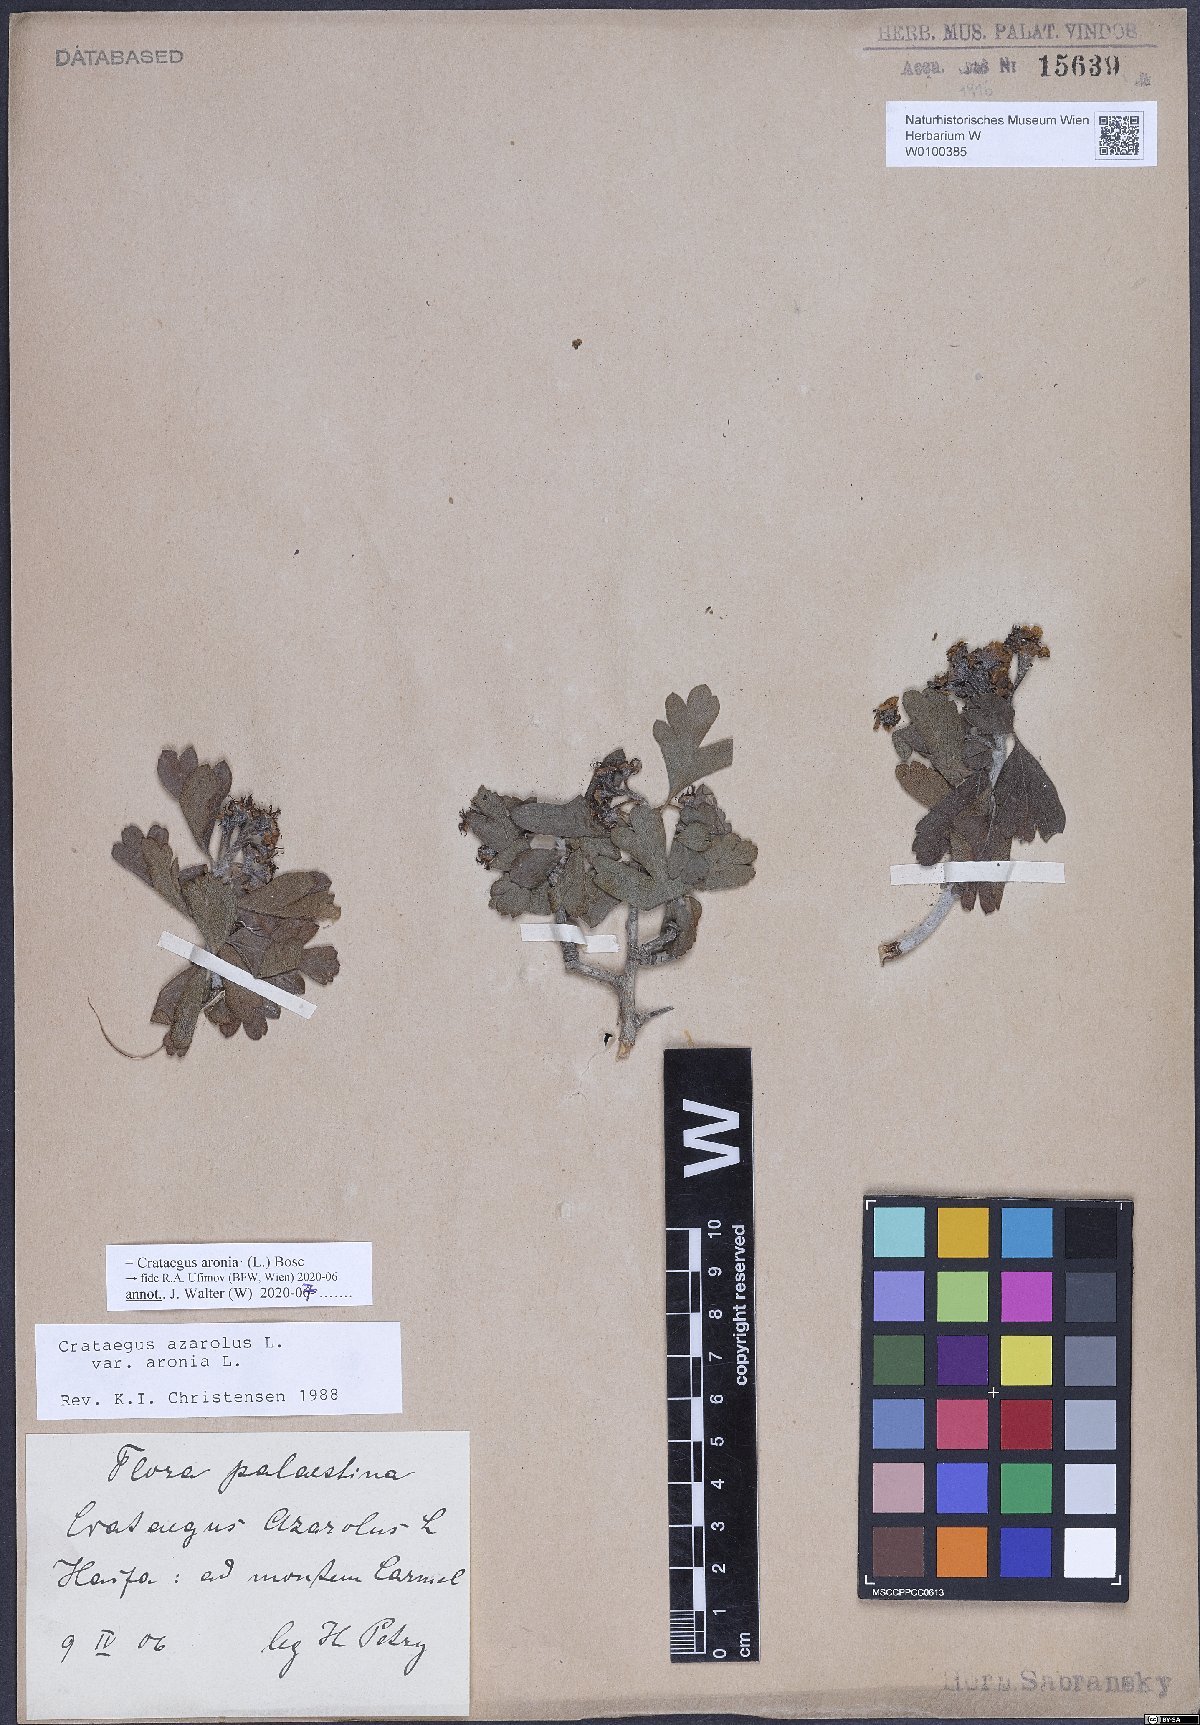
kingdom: Plantae
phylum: Tracheophyta
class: Magnoliopsida
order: Rosales
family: Rosaceae
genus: Crataegus
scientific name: Crataegus azarolus
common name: Azarole
